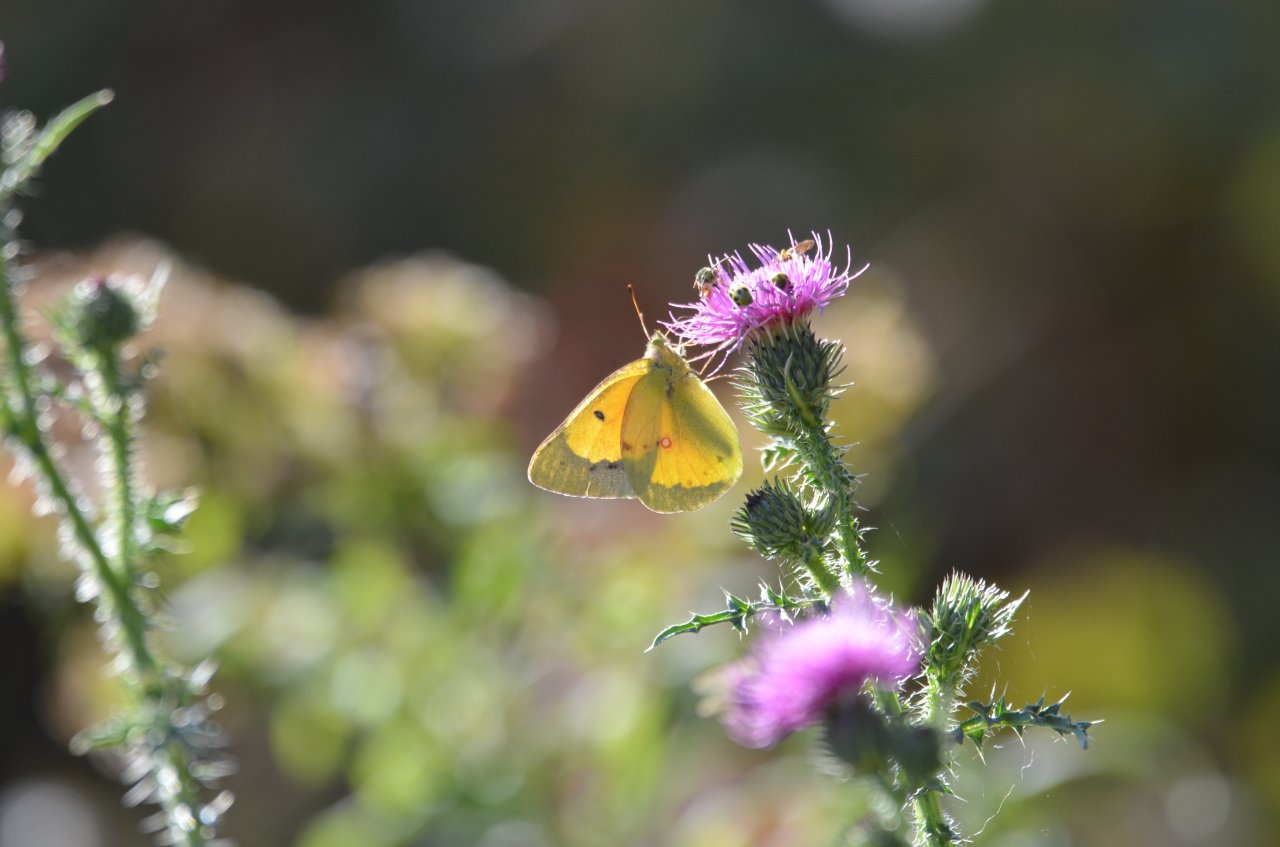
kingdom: Animalia
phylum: Arthropoda
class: Insecta
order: Lepidoptera
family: Pieridae
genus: Colias
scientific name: Colias eurytheme
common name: Orange Sulphur
